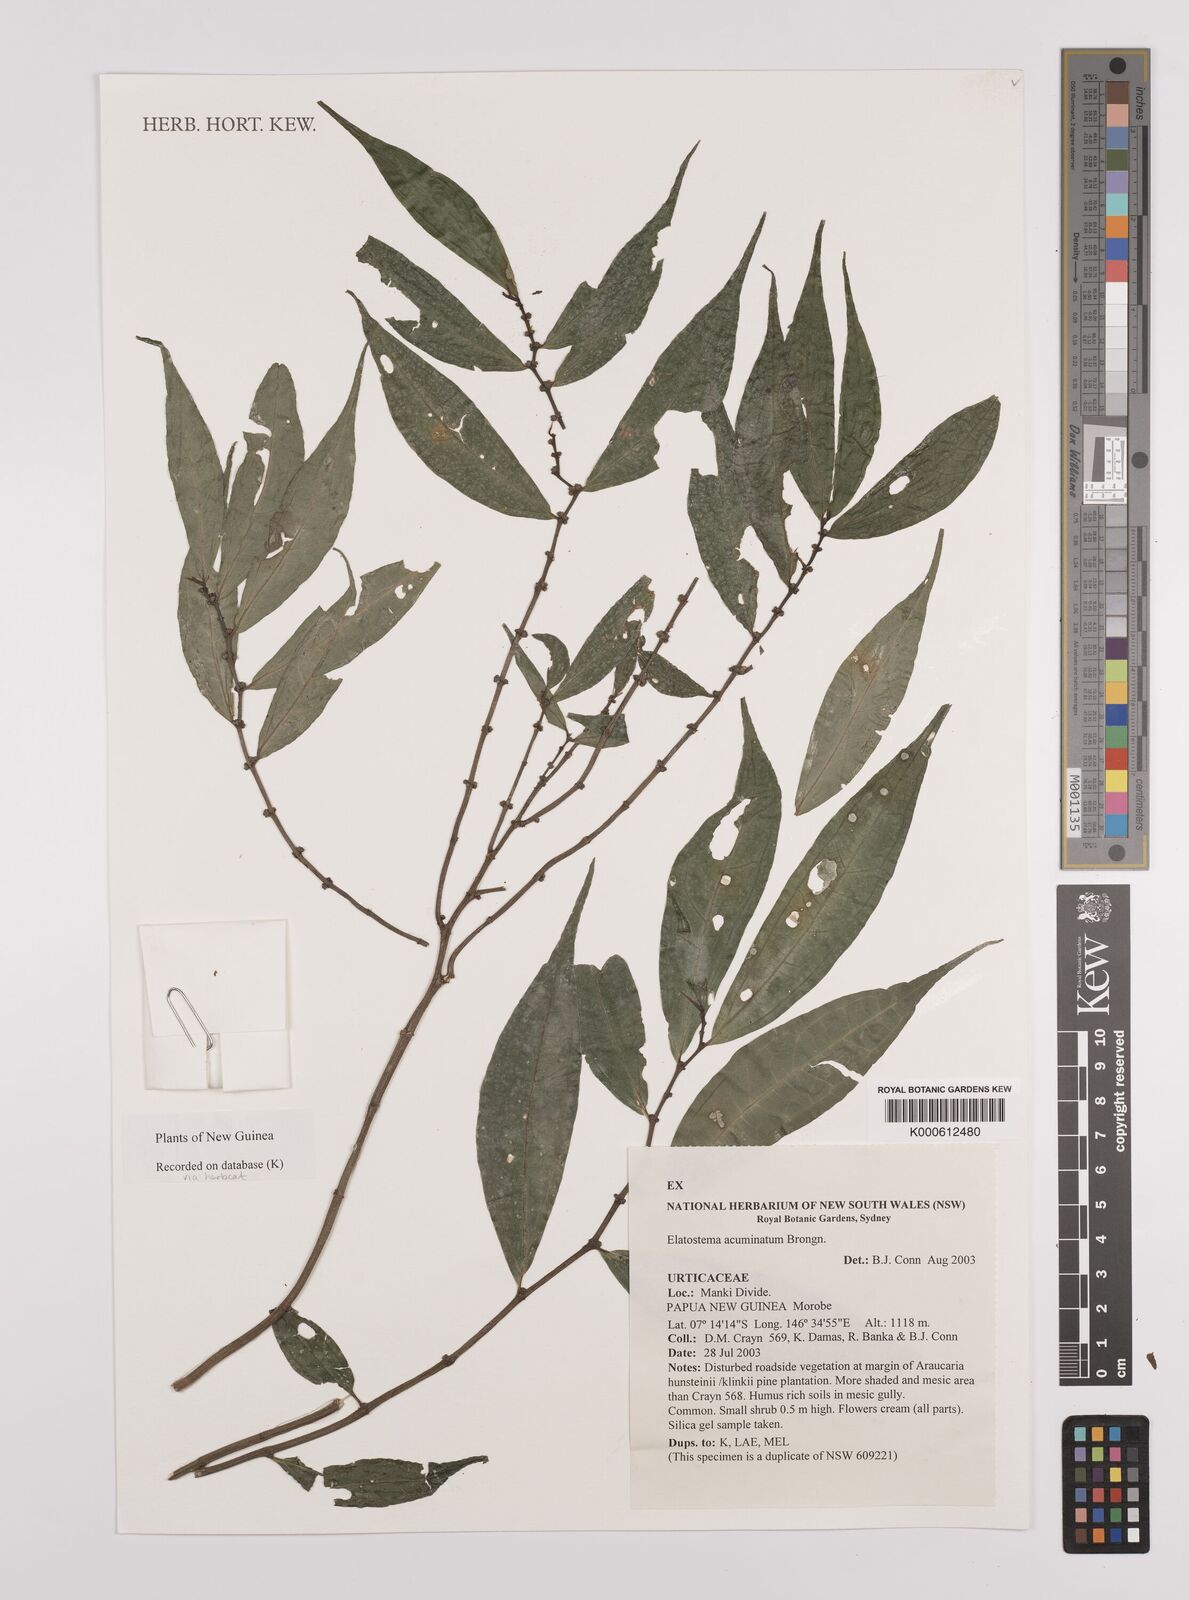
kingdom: Plantae
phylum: Tracheophyta
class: Magnoliopsida
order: Rosales
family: Urticaceae
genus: Elatostema
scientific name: Elatostema acuminatum
